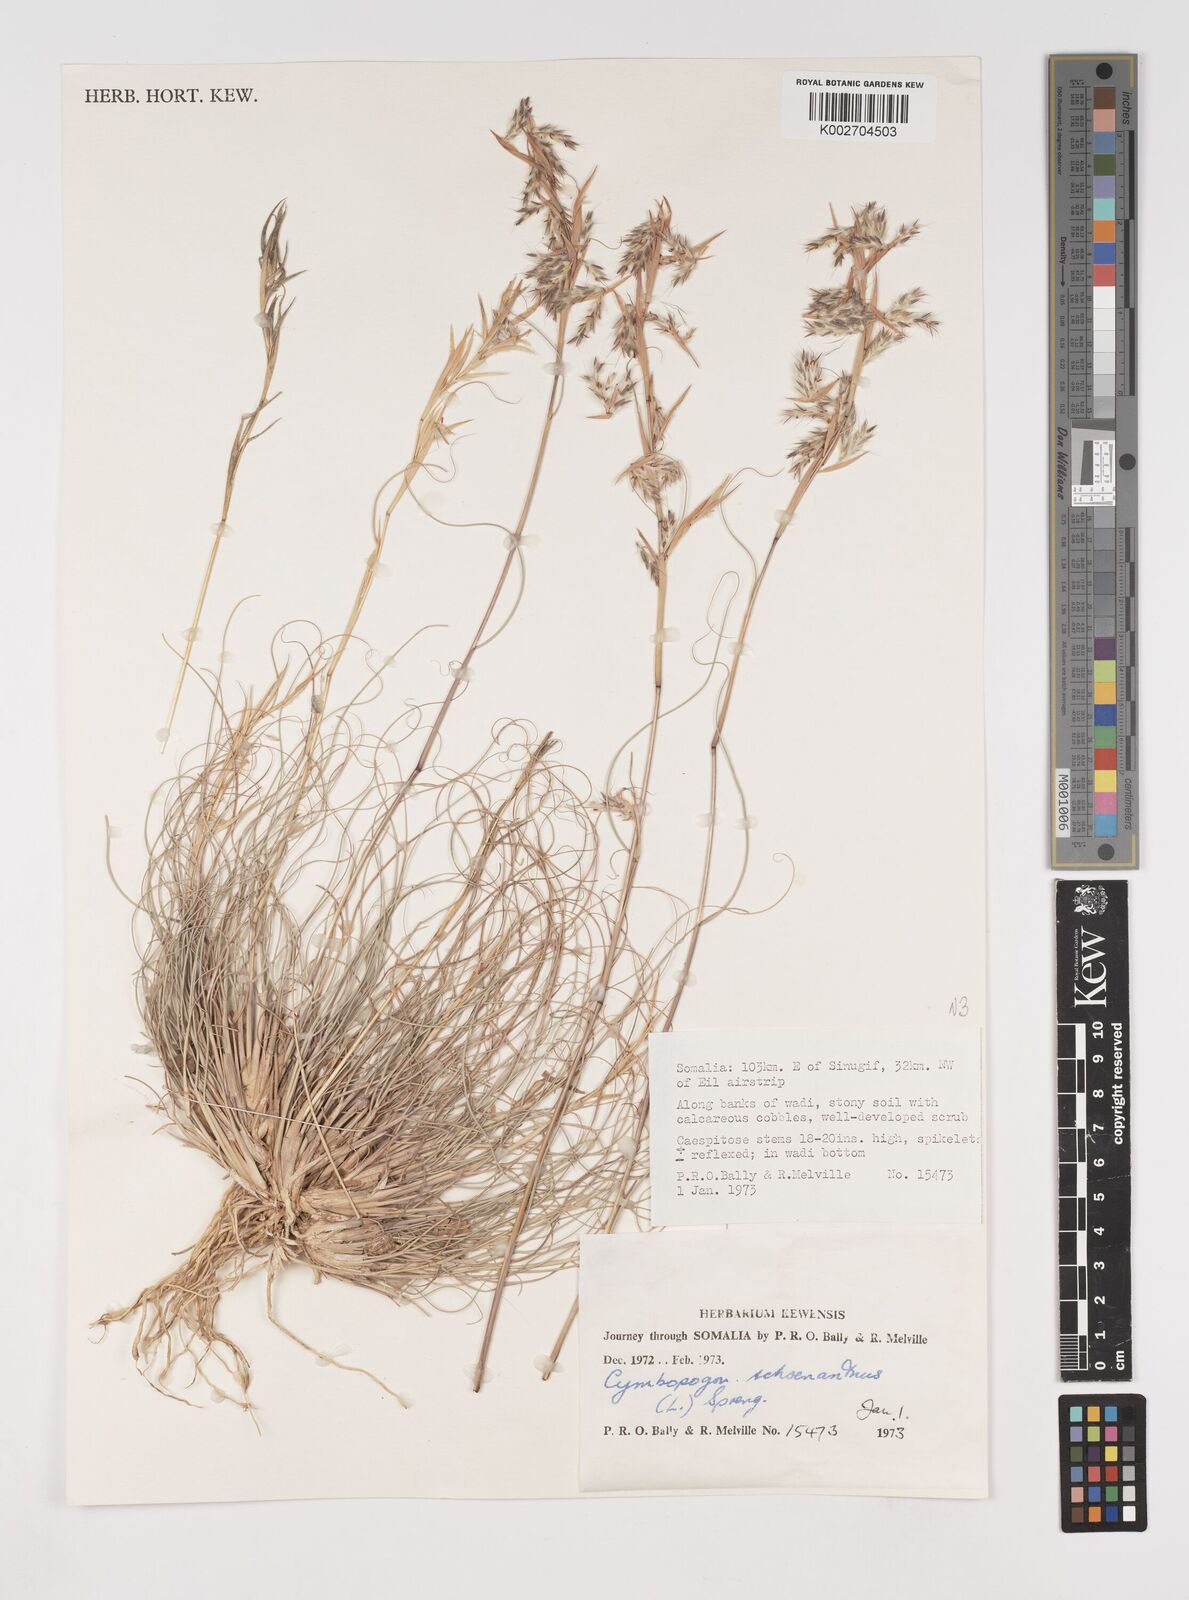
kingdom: Plantae
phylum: Tracheophyta
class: Liliopsida
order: Poales
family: Poaceae
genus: Cymbopogon
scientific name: Cymbopogon schoenanthus
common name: Geranium grass
